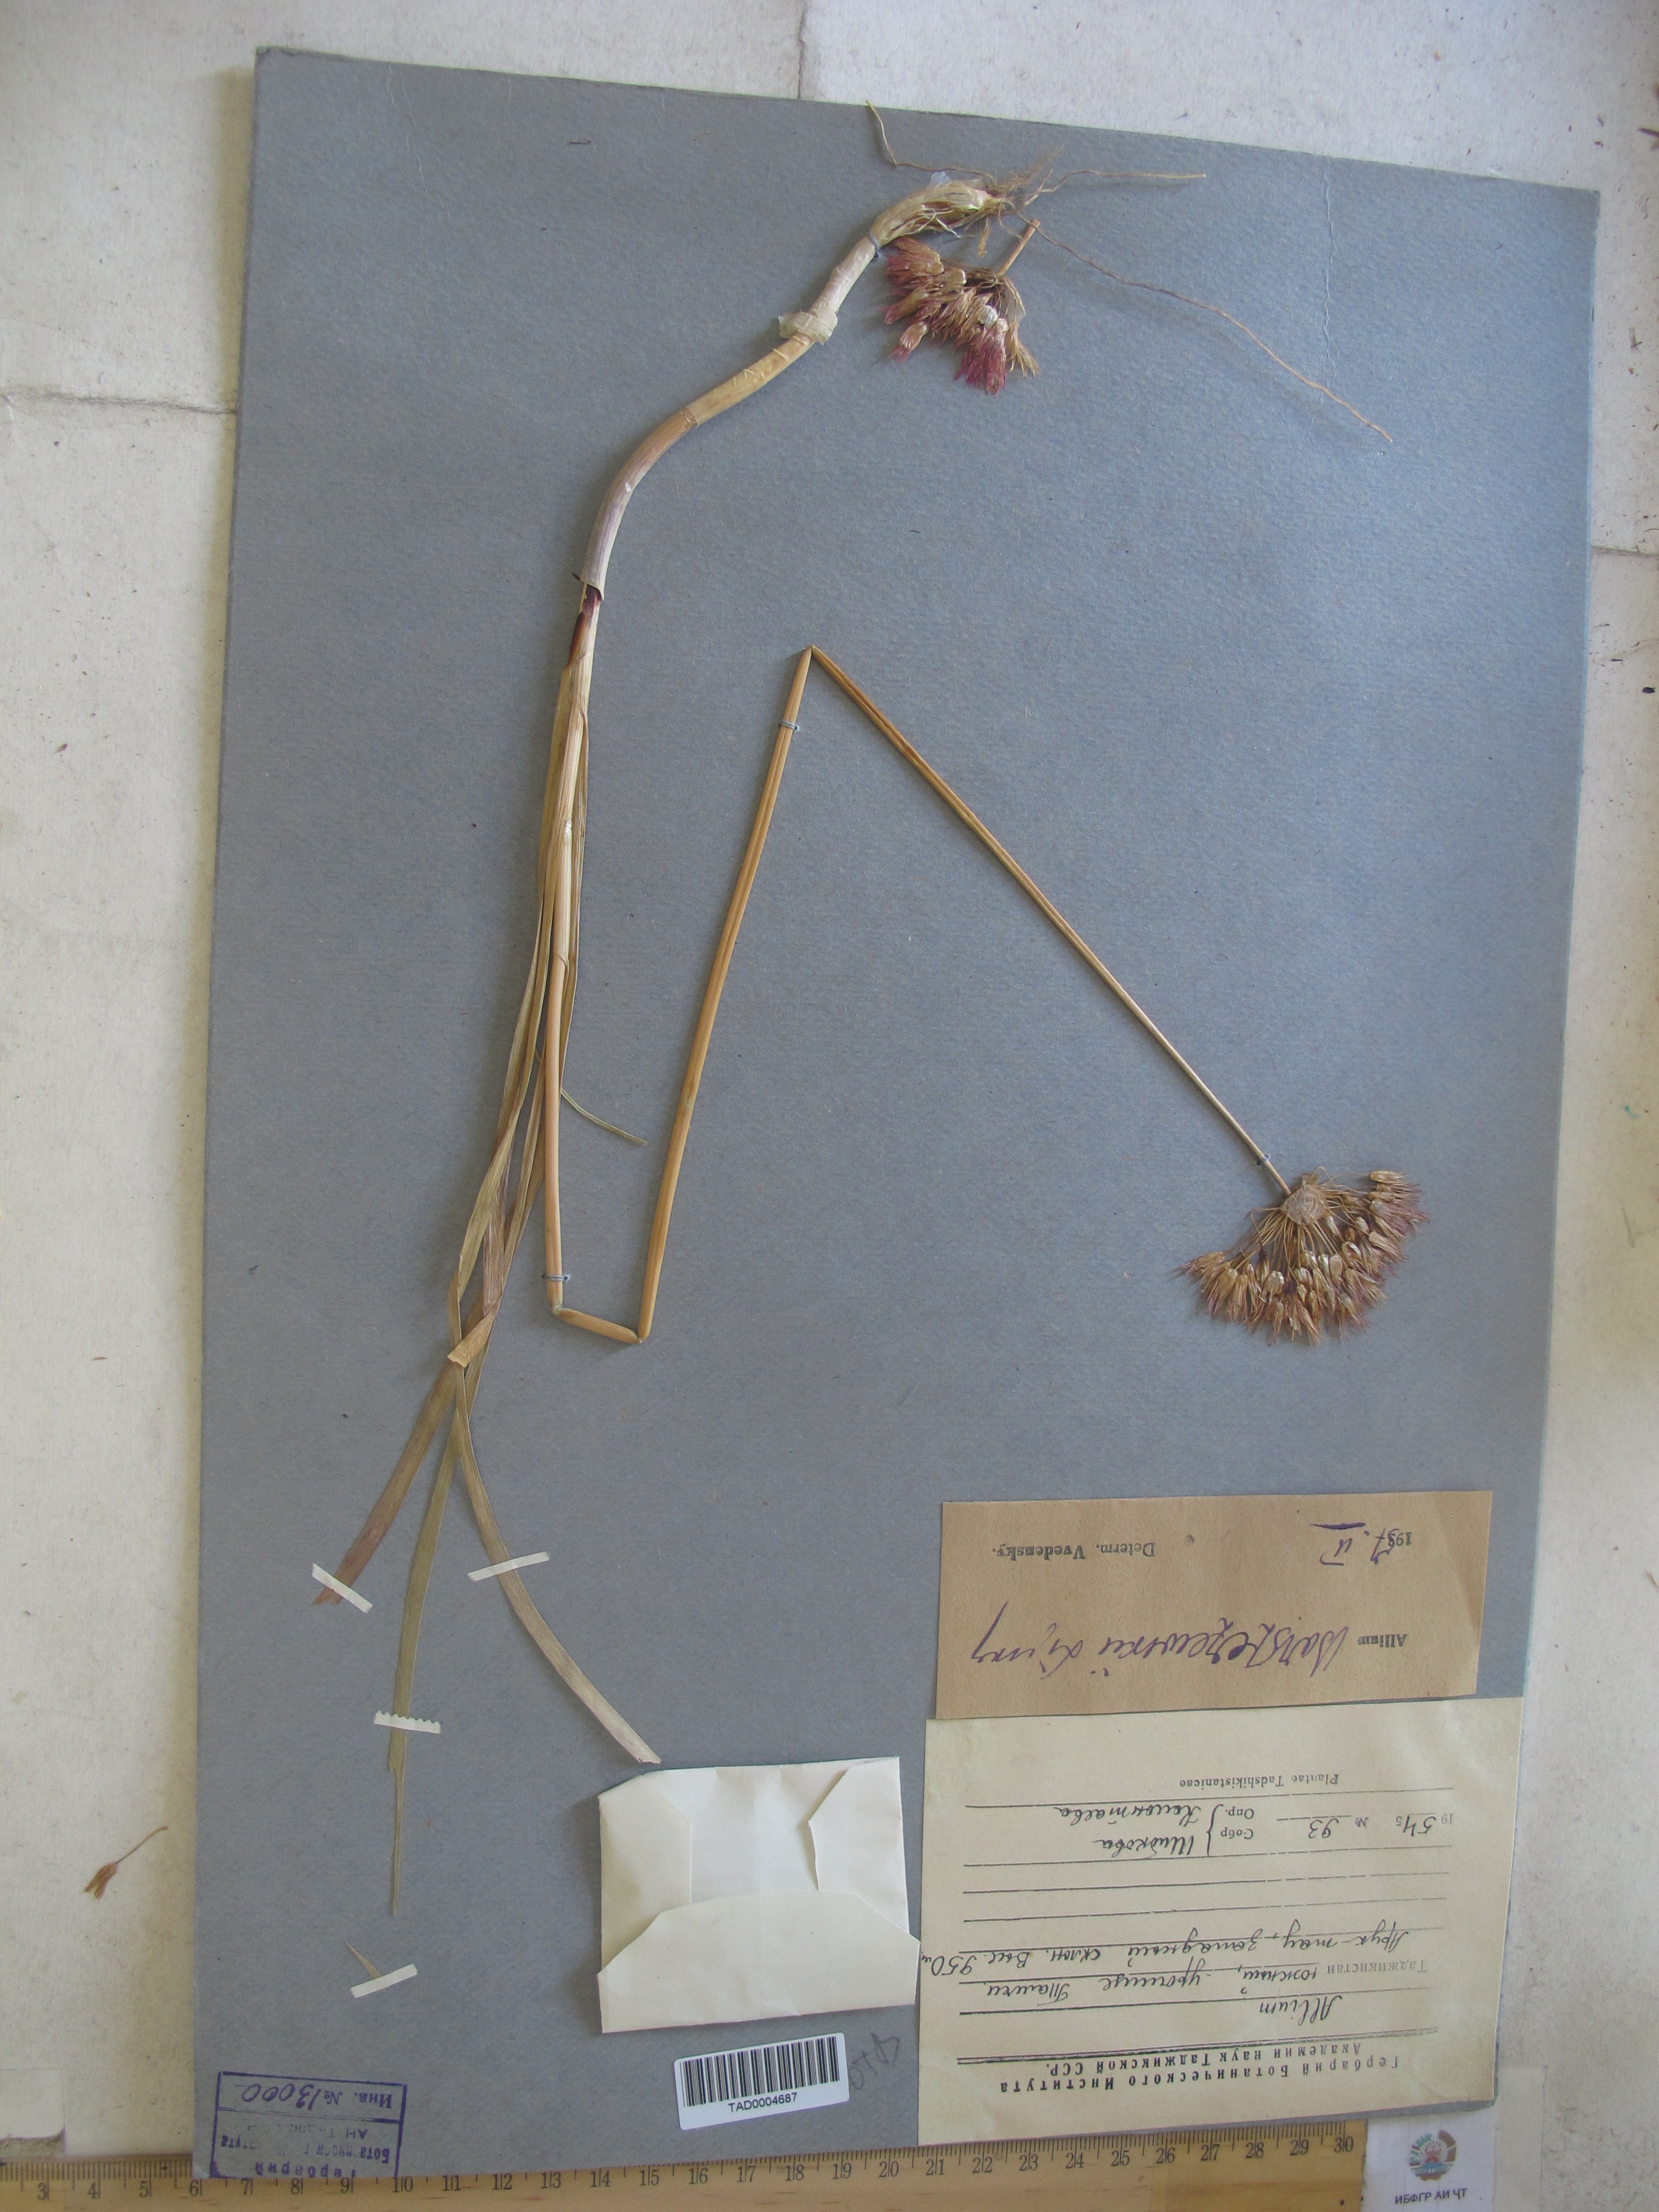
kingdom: Plantae
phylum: Tracheophyta
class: Liliopsida
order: Asparagales
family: Amaryllidaceae
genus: Allium
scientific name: Allium barsczewskii
